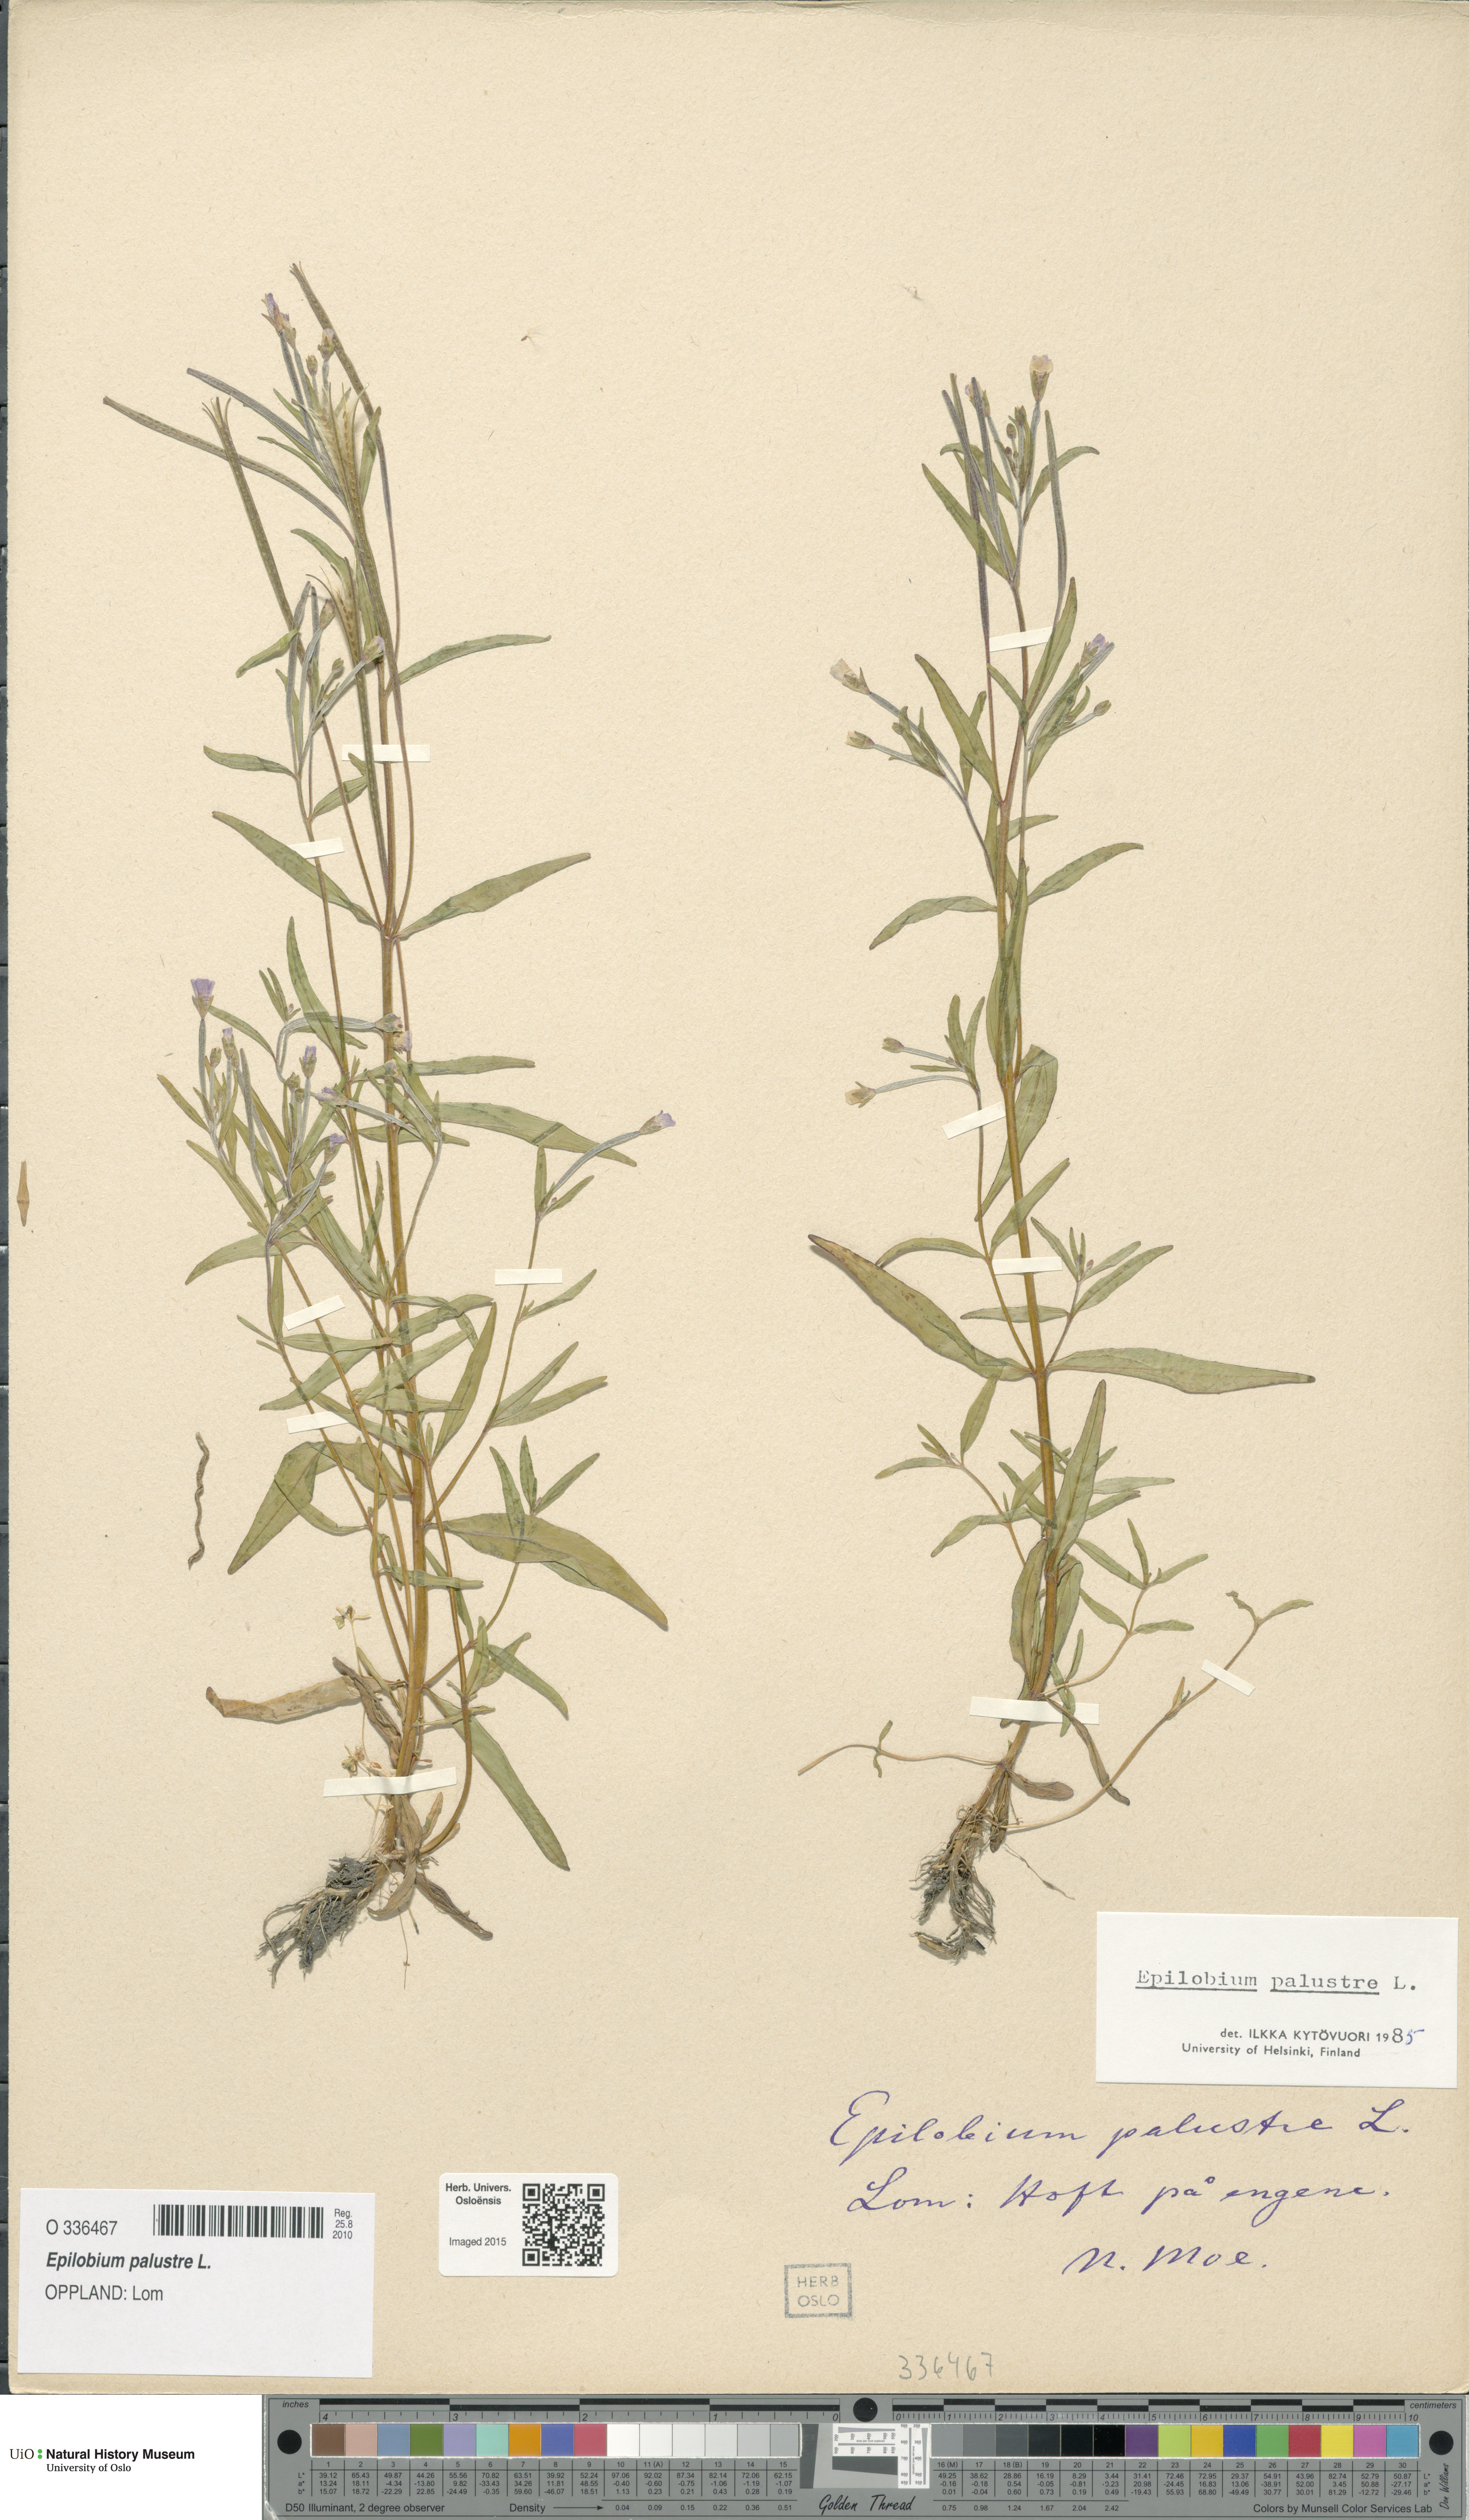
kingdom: Plantae
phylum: Tracheophyta
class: Magnoliopsida
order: Myrtales
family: Onagraceae
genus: Epilobium
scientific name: Epilobium palustre
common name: Marsh willowherb
